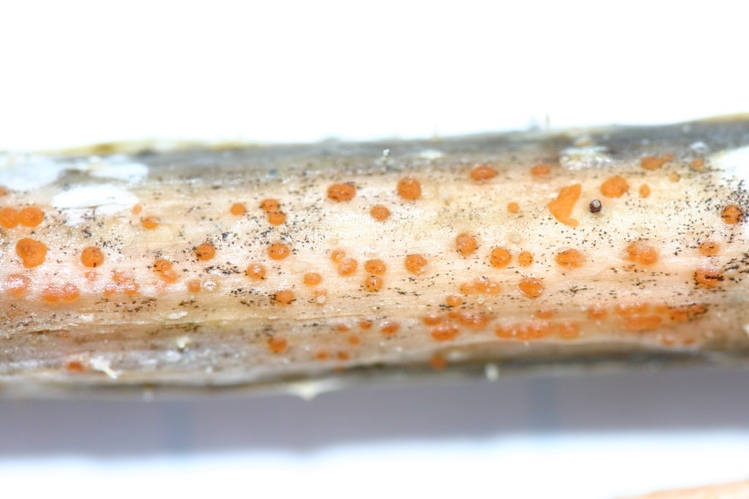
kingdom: Fungi
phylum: Ascomycota
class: Leotiomycetes
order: Helotiales
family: Calloriaceae
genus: Calloria
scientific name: Calloria urticae
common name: nælde-orangeskive
